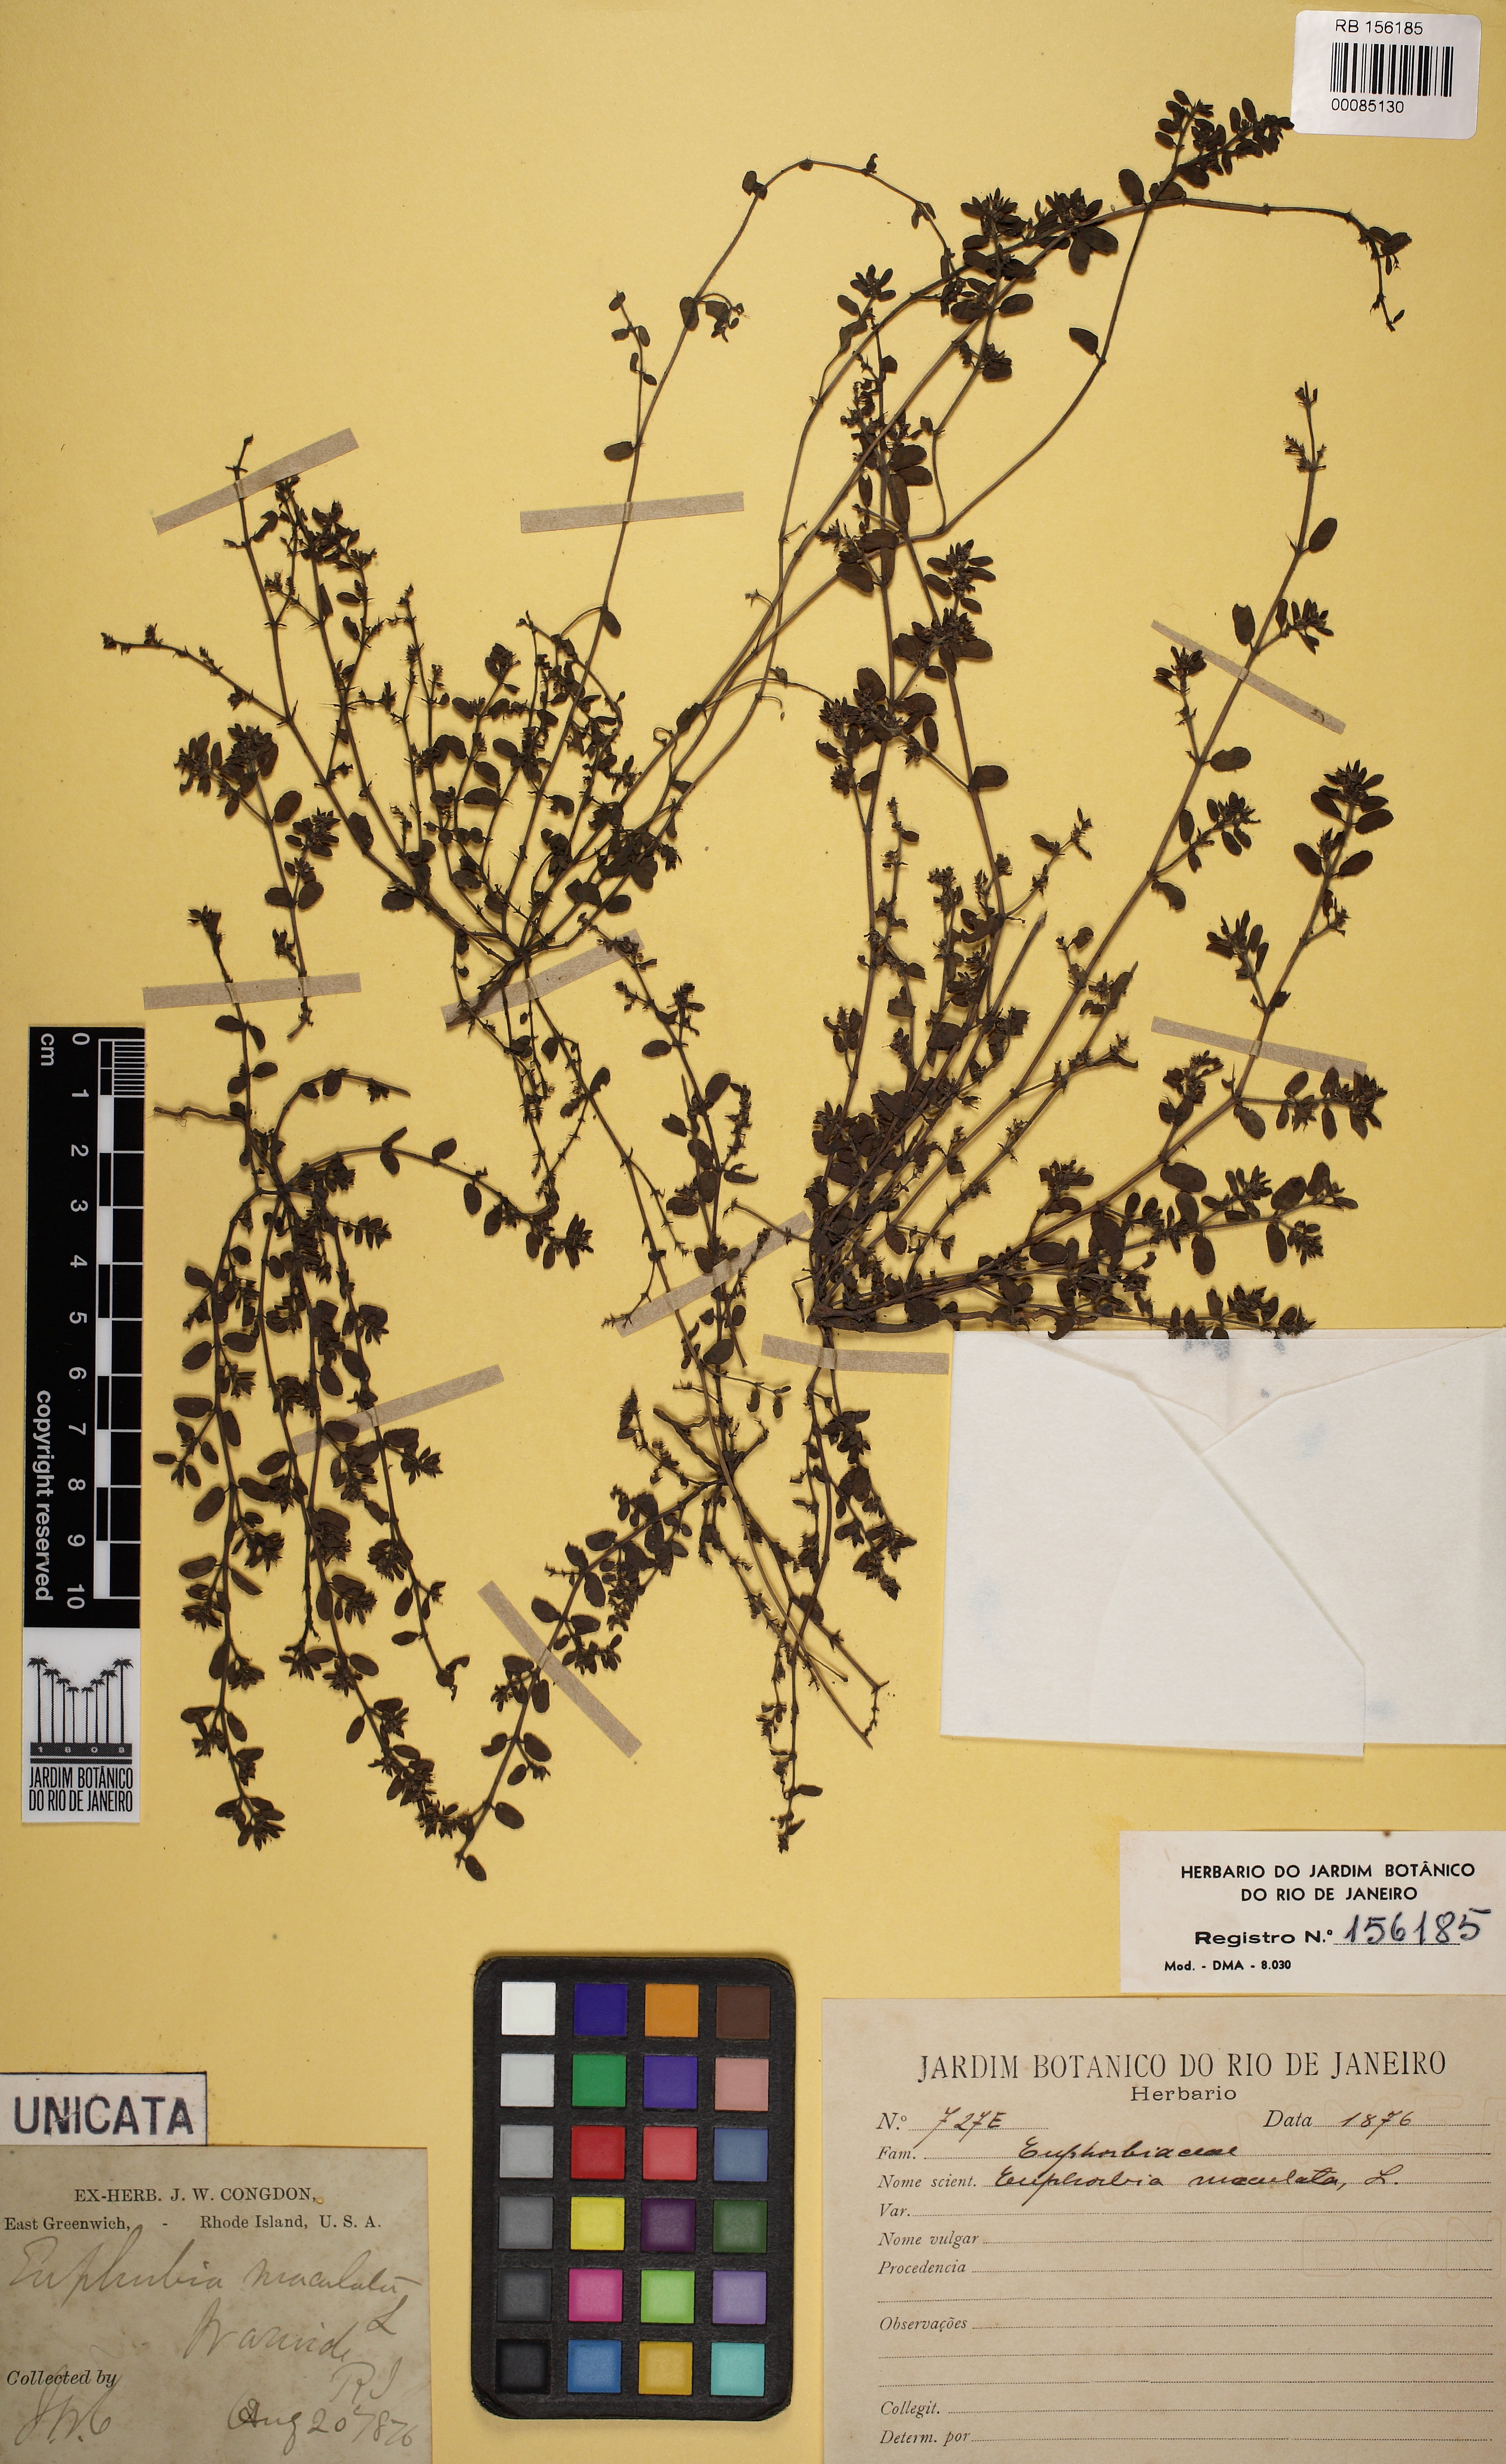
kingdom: Plantae
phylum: Tracheophyta
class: Magnoliopsida
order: Malpighiales
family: Euphorbiaceae
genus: Euphorbia
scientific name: Euphorbia maculata
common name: Spotted spurge
